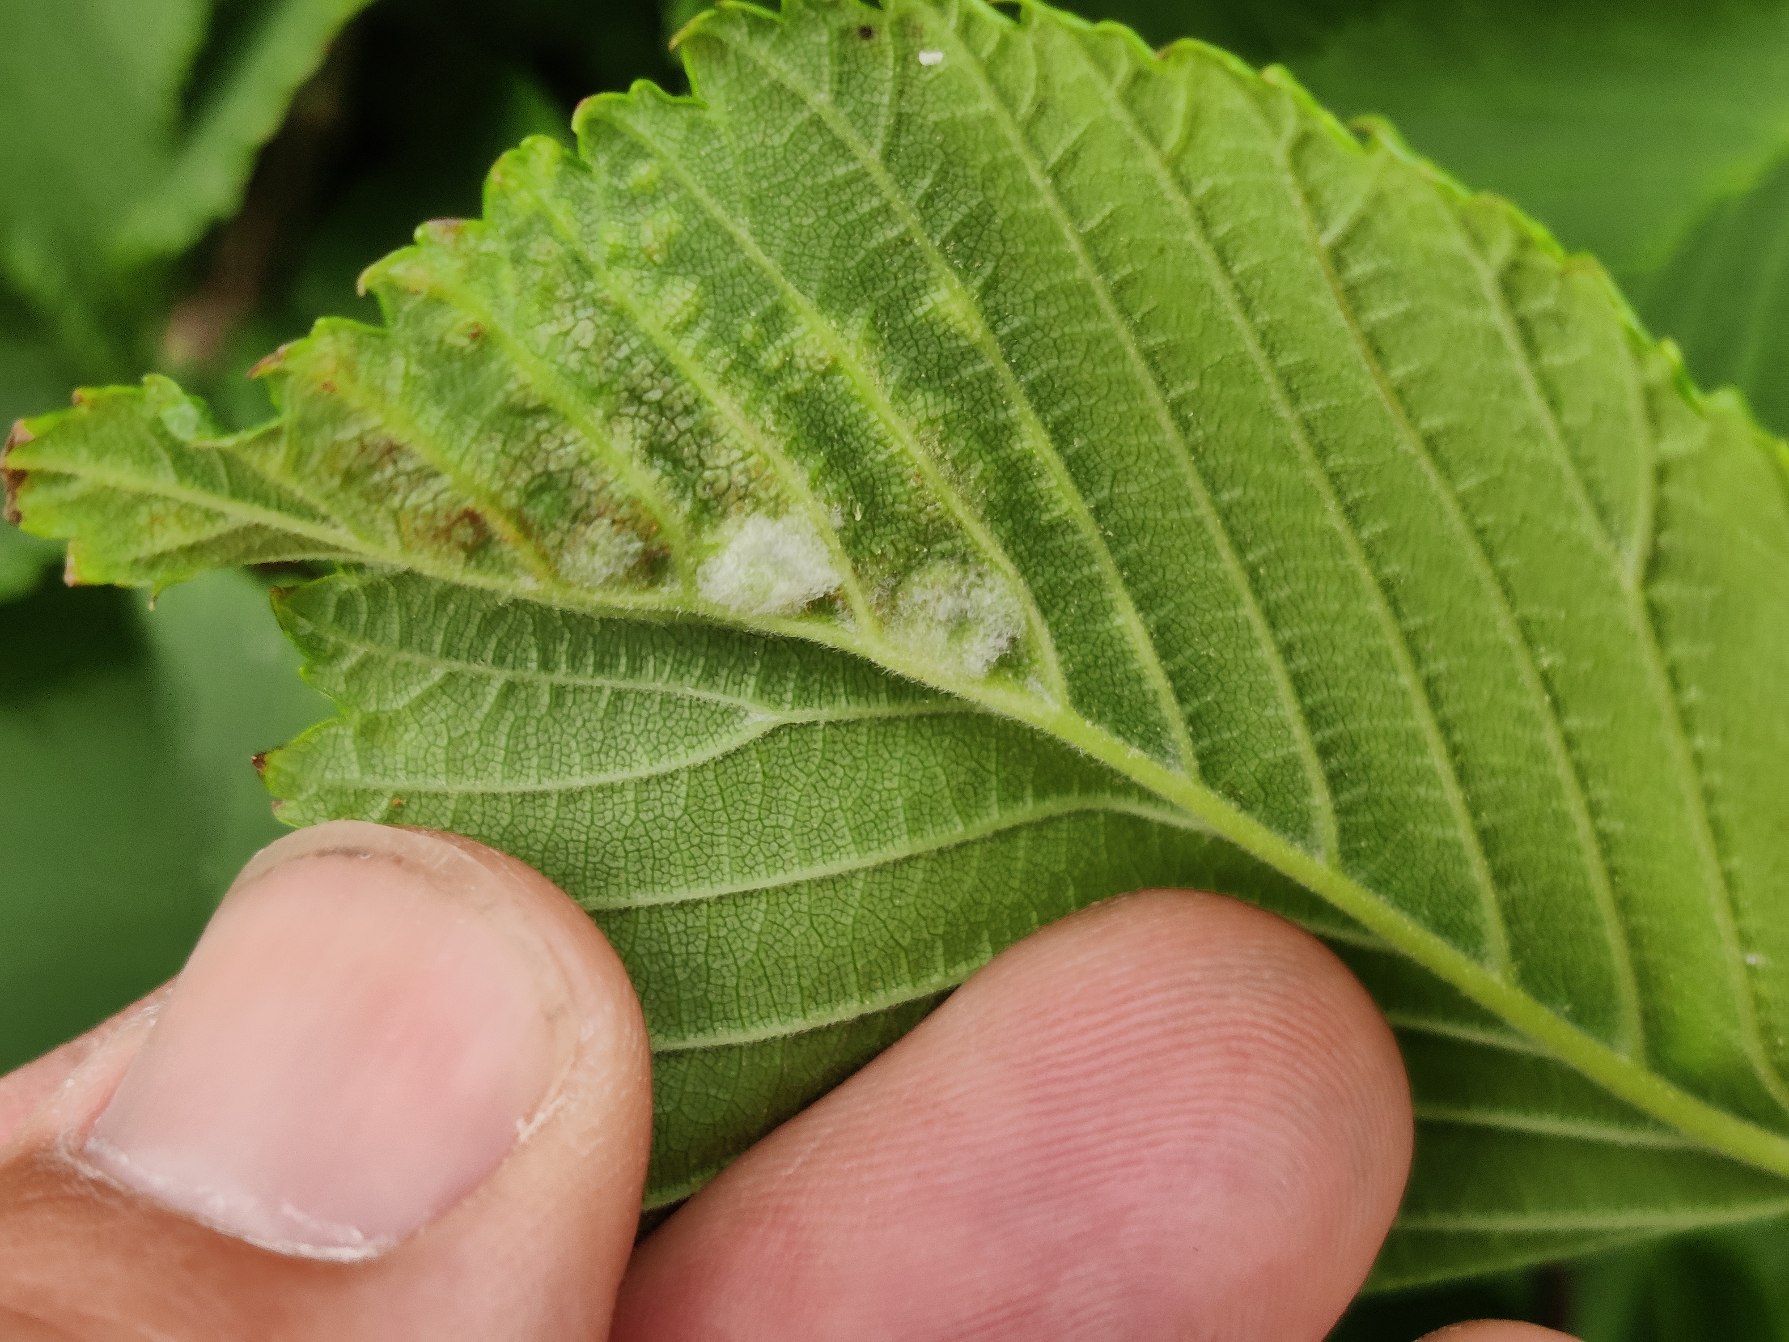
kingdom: Animalia
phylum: Arthropoda
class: Insecta
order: Hemiptera
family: Aphididae
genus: Tetraneura
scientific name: Tetraneura ulmi
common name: Elmegallelus
